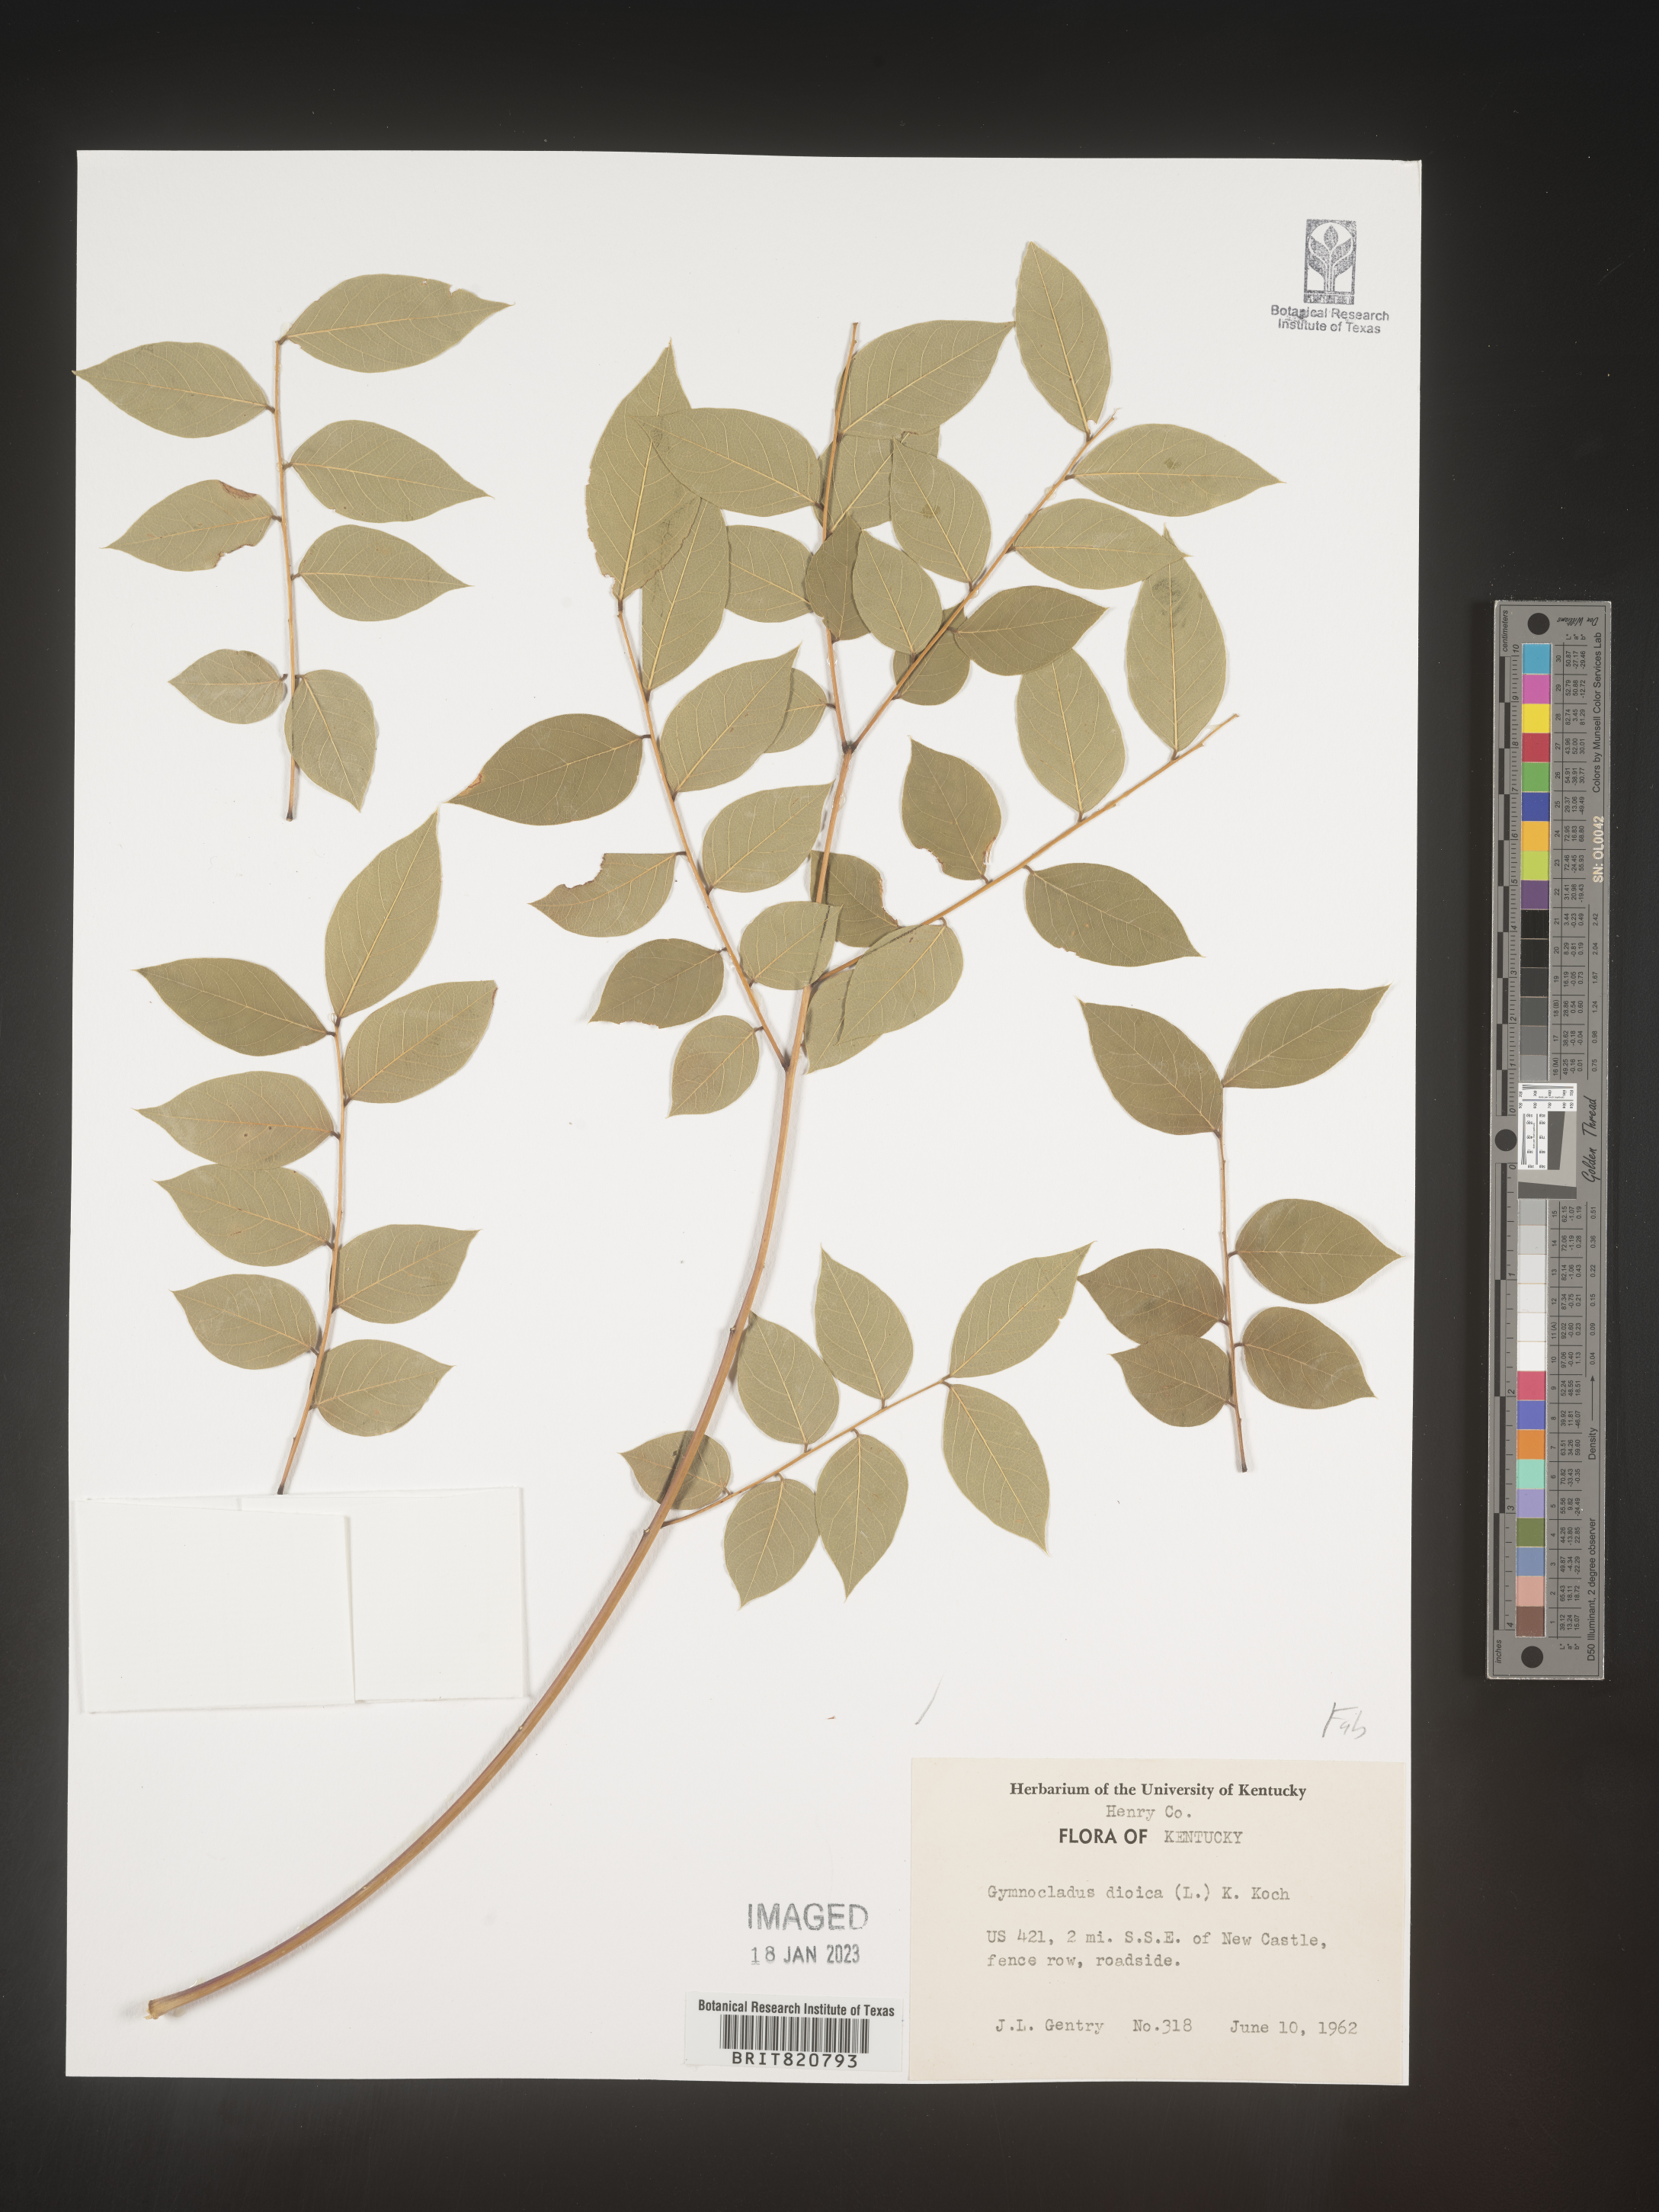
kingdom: Plantae
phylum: Tracheophyta
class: Magnoliopsida
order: Fabales
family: Fabaceae
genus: Gymnocladus
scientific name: Gymnocladus dioicus
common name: Kentucky coffee-tree
